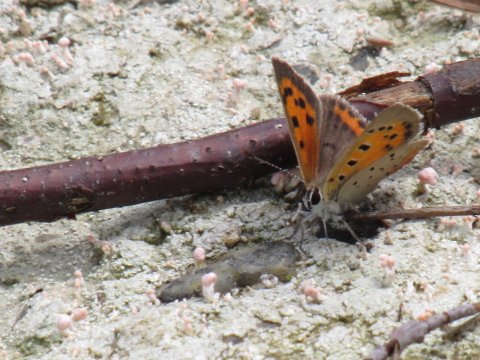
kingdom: Animalia
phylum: Arthropoda
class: Insecta
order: Lepidoptera
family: Lycaenidae
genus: Lycaena
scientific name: Lycaena phlaeas
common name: American Copper
